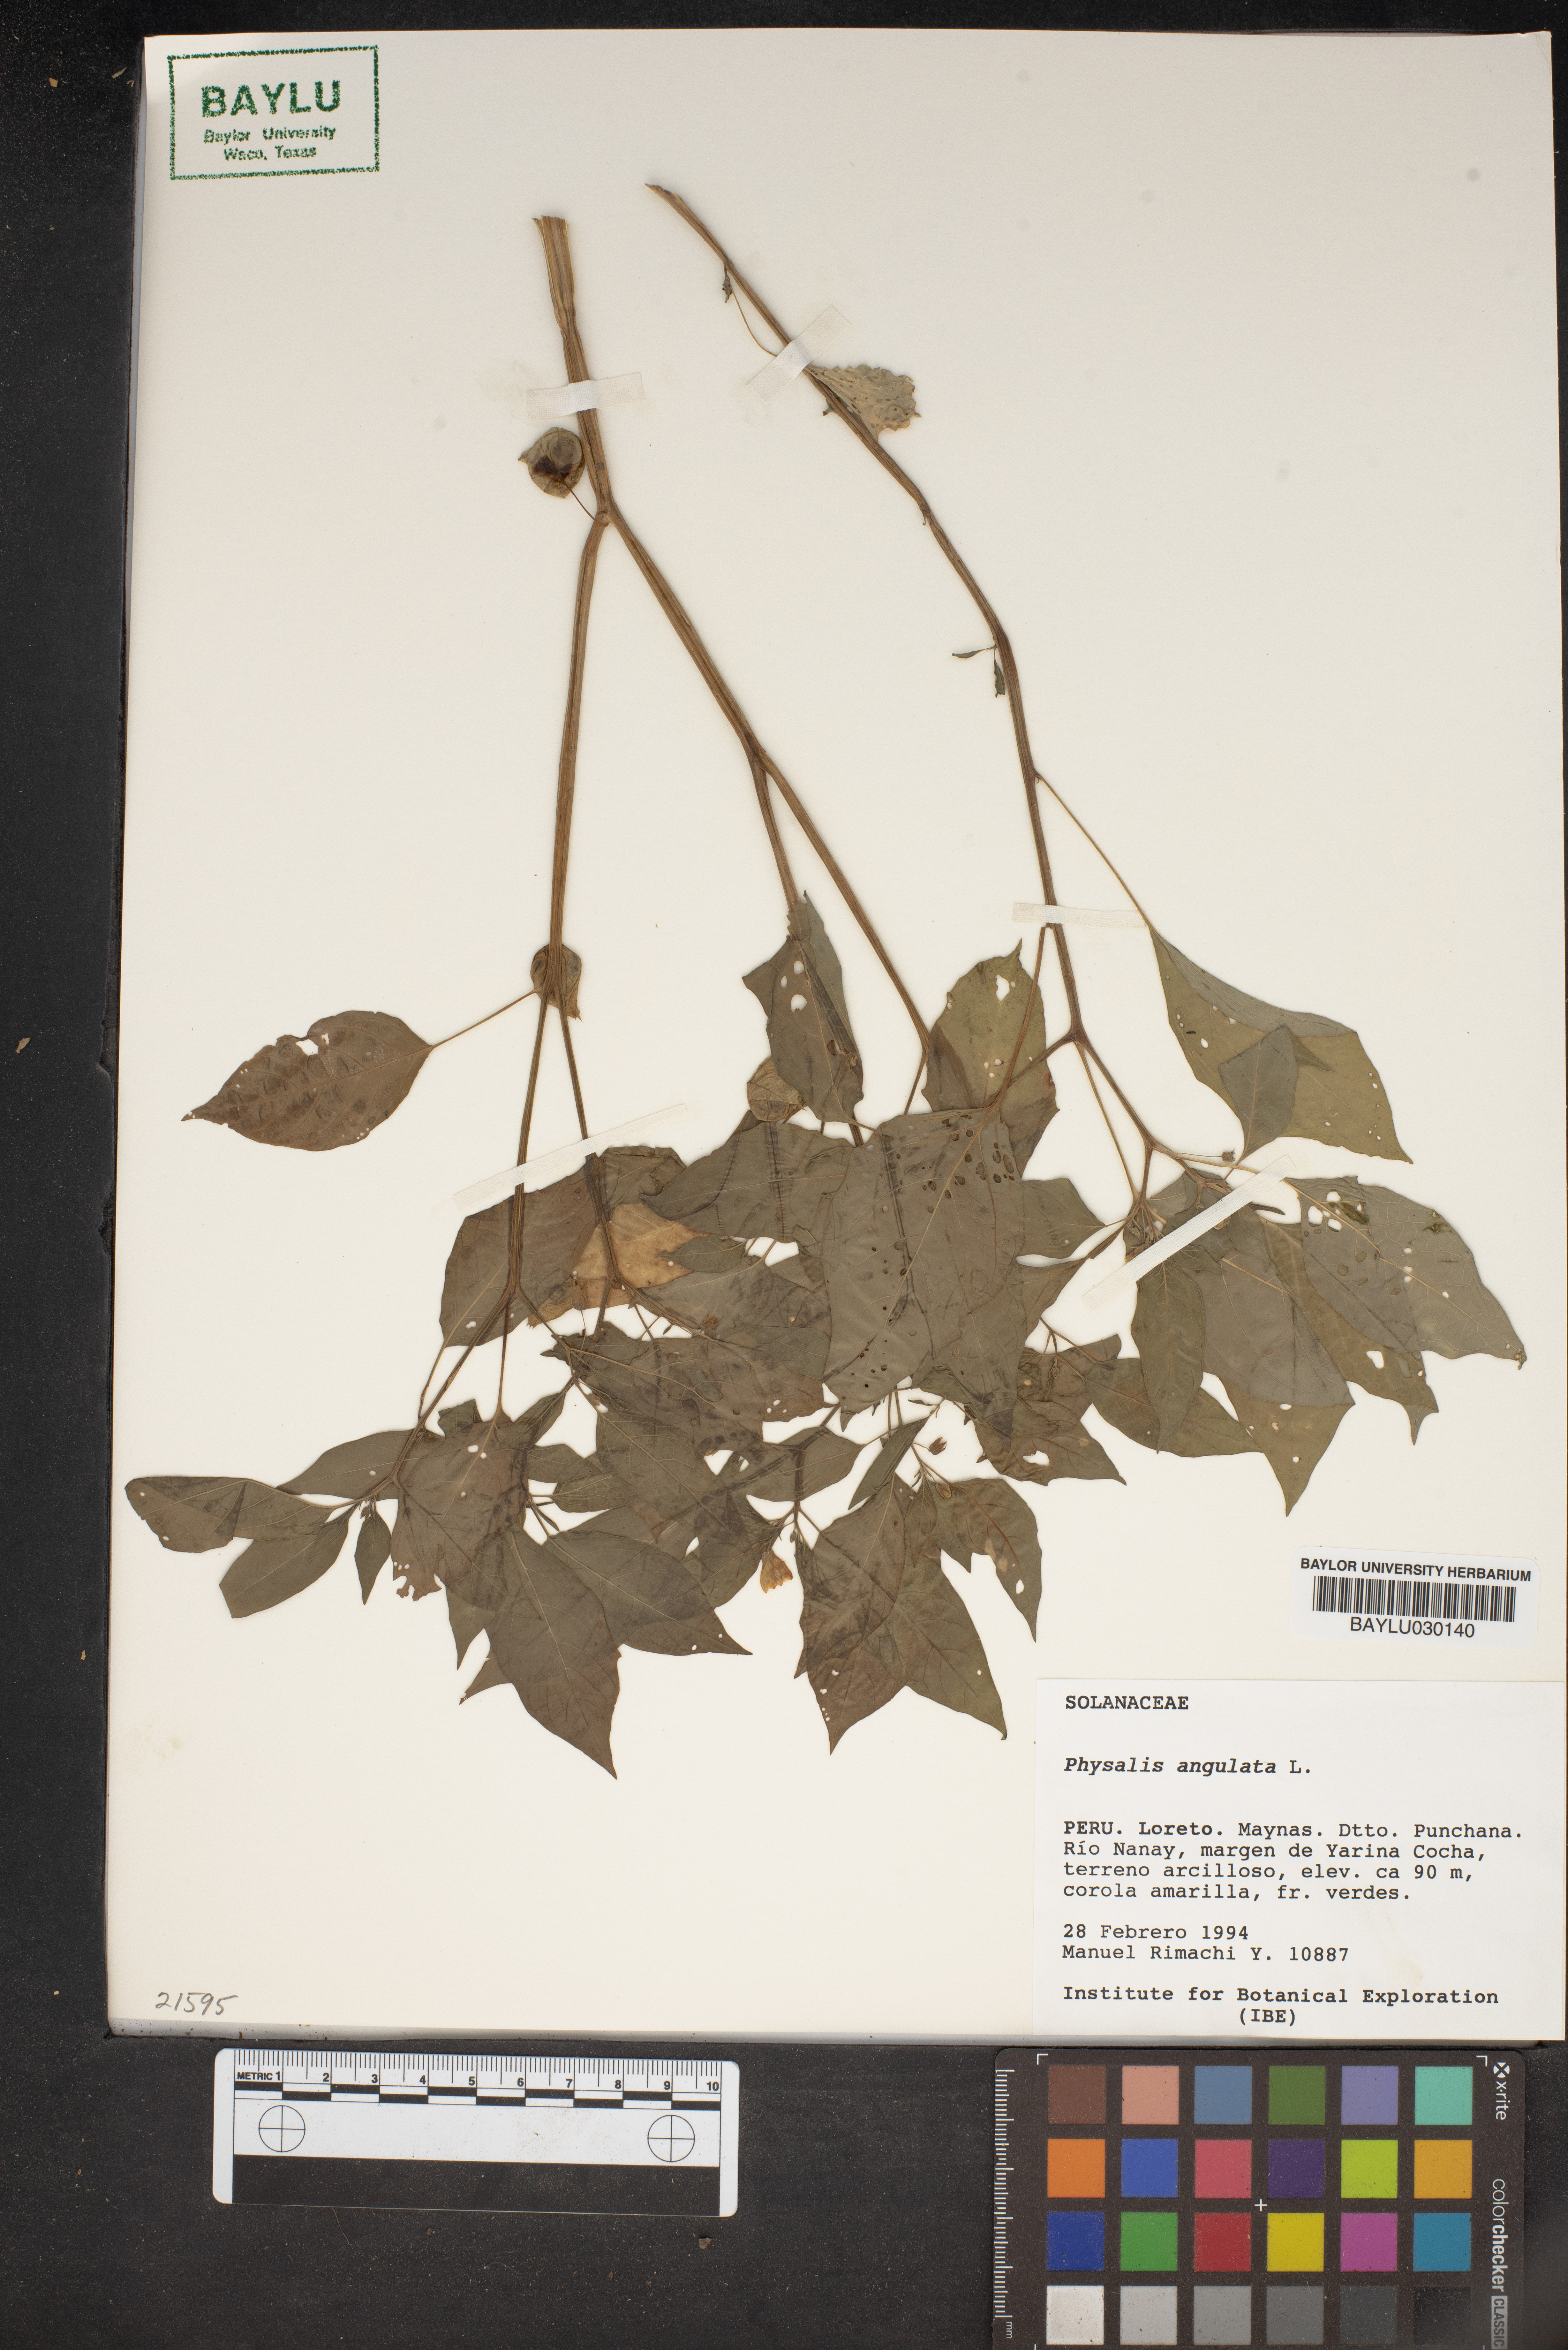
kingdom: Plantae
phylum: Tracheophyta
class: Magnoliopsida
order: Solanales
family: Solanaceae
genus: Physalis
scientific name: Physalis angulata
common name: Angular winter-cherry
